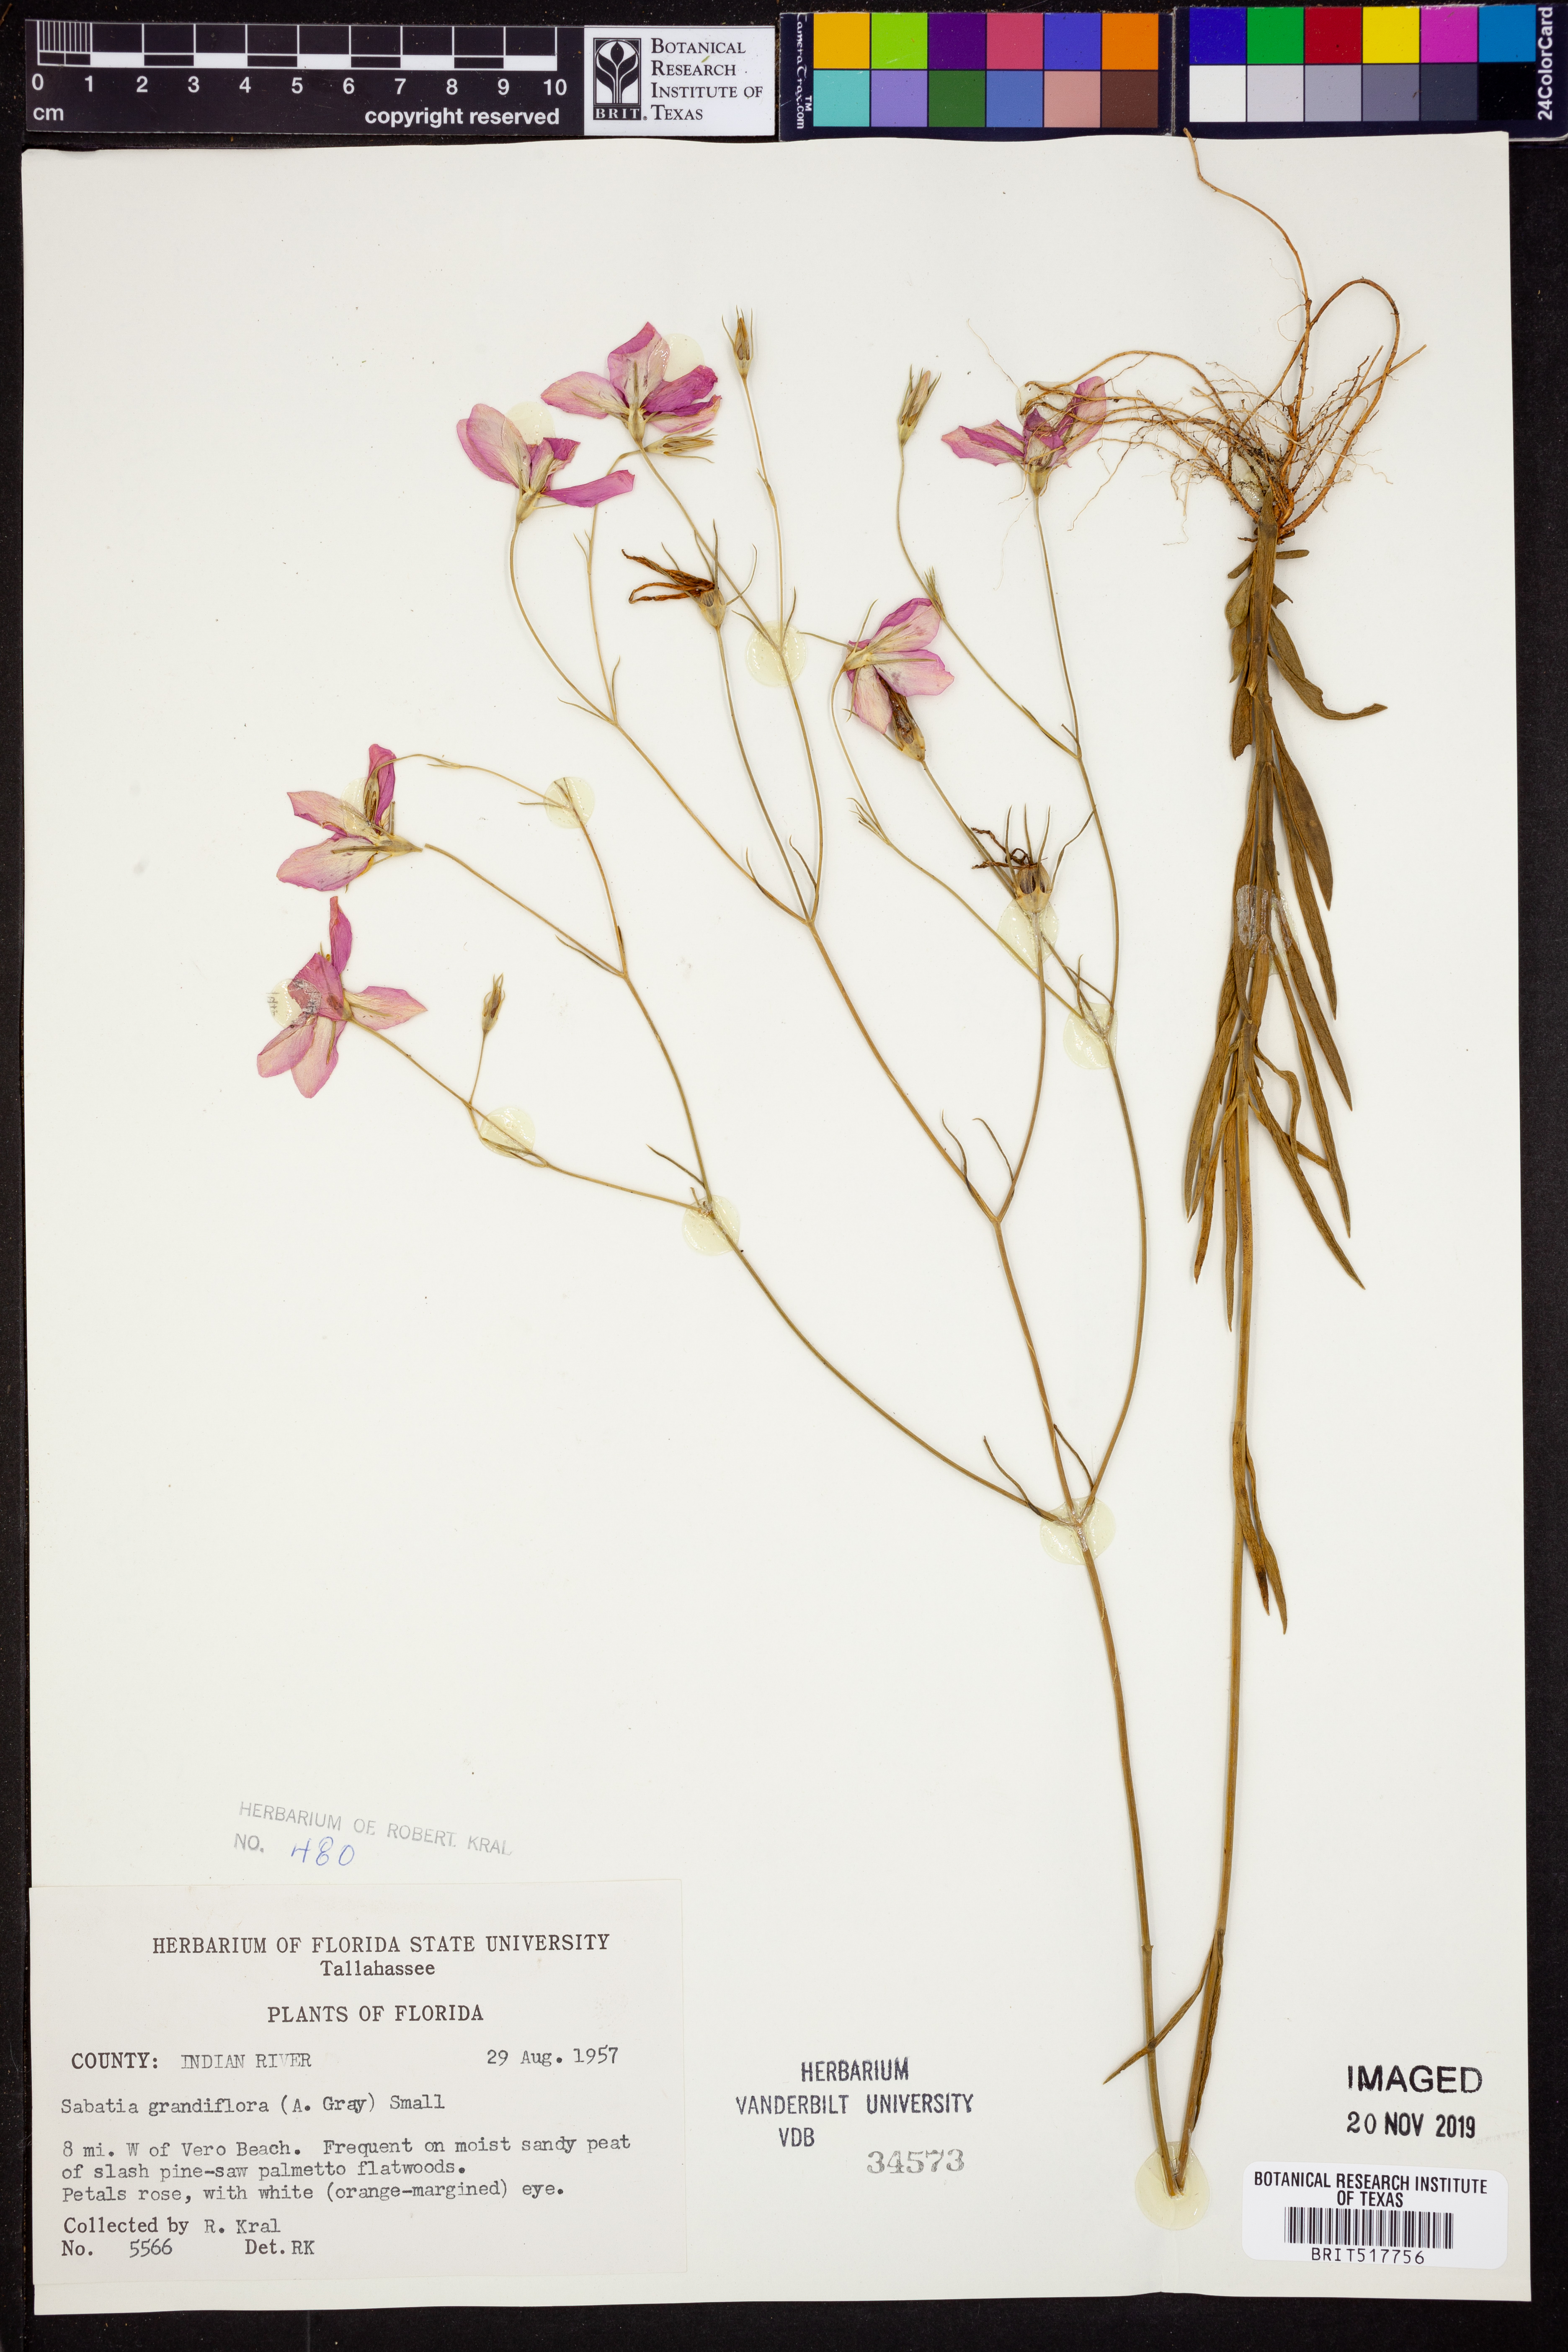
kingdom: Plantae
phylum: Tracheophyta
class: Magnoliopsida
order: Gentianales
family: Gentianaceae
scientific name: Gentianaceae
